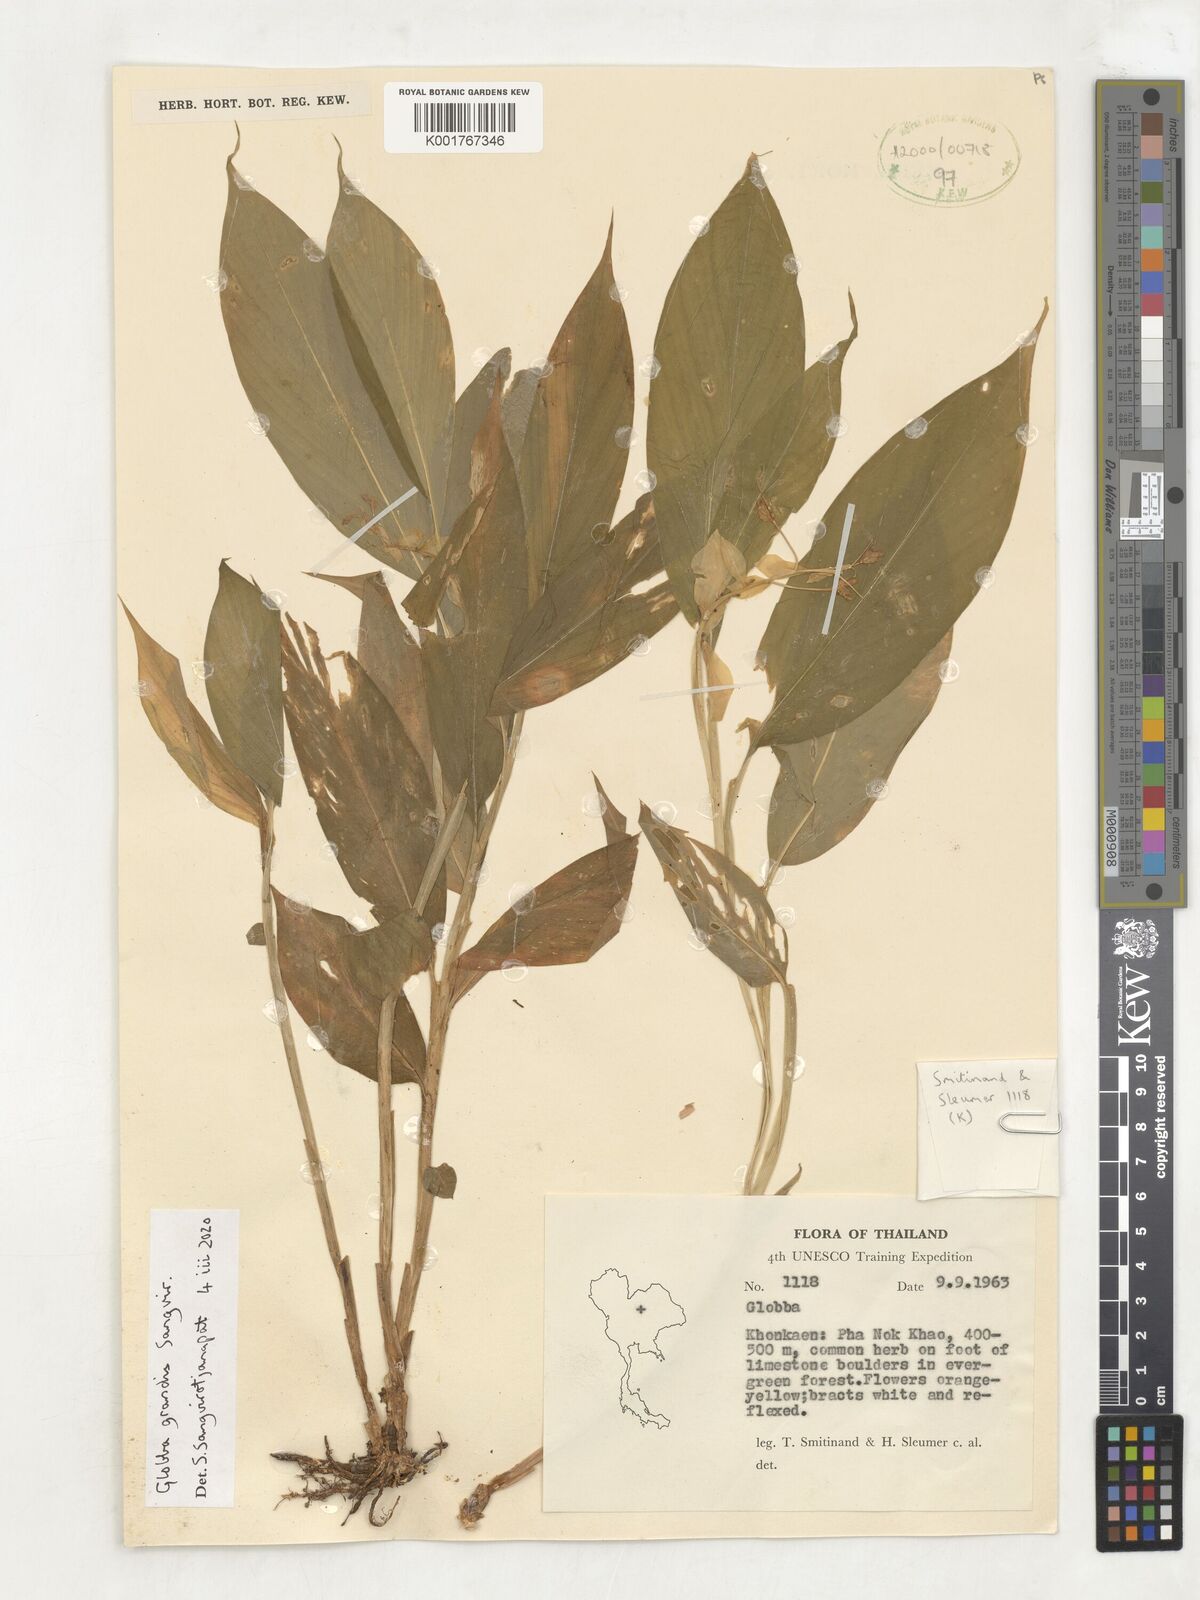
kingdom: Plantae
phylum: Tracheophyta
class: Liliopsida
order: Zingiberales
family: Zingiberaceae
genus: Globba
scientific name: Globba
